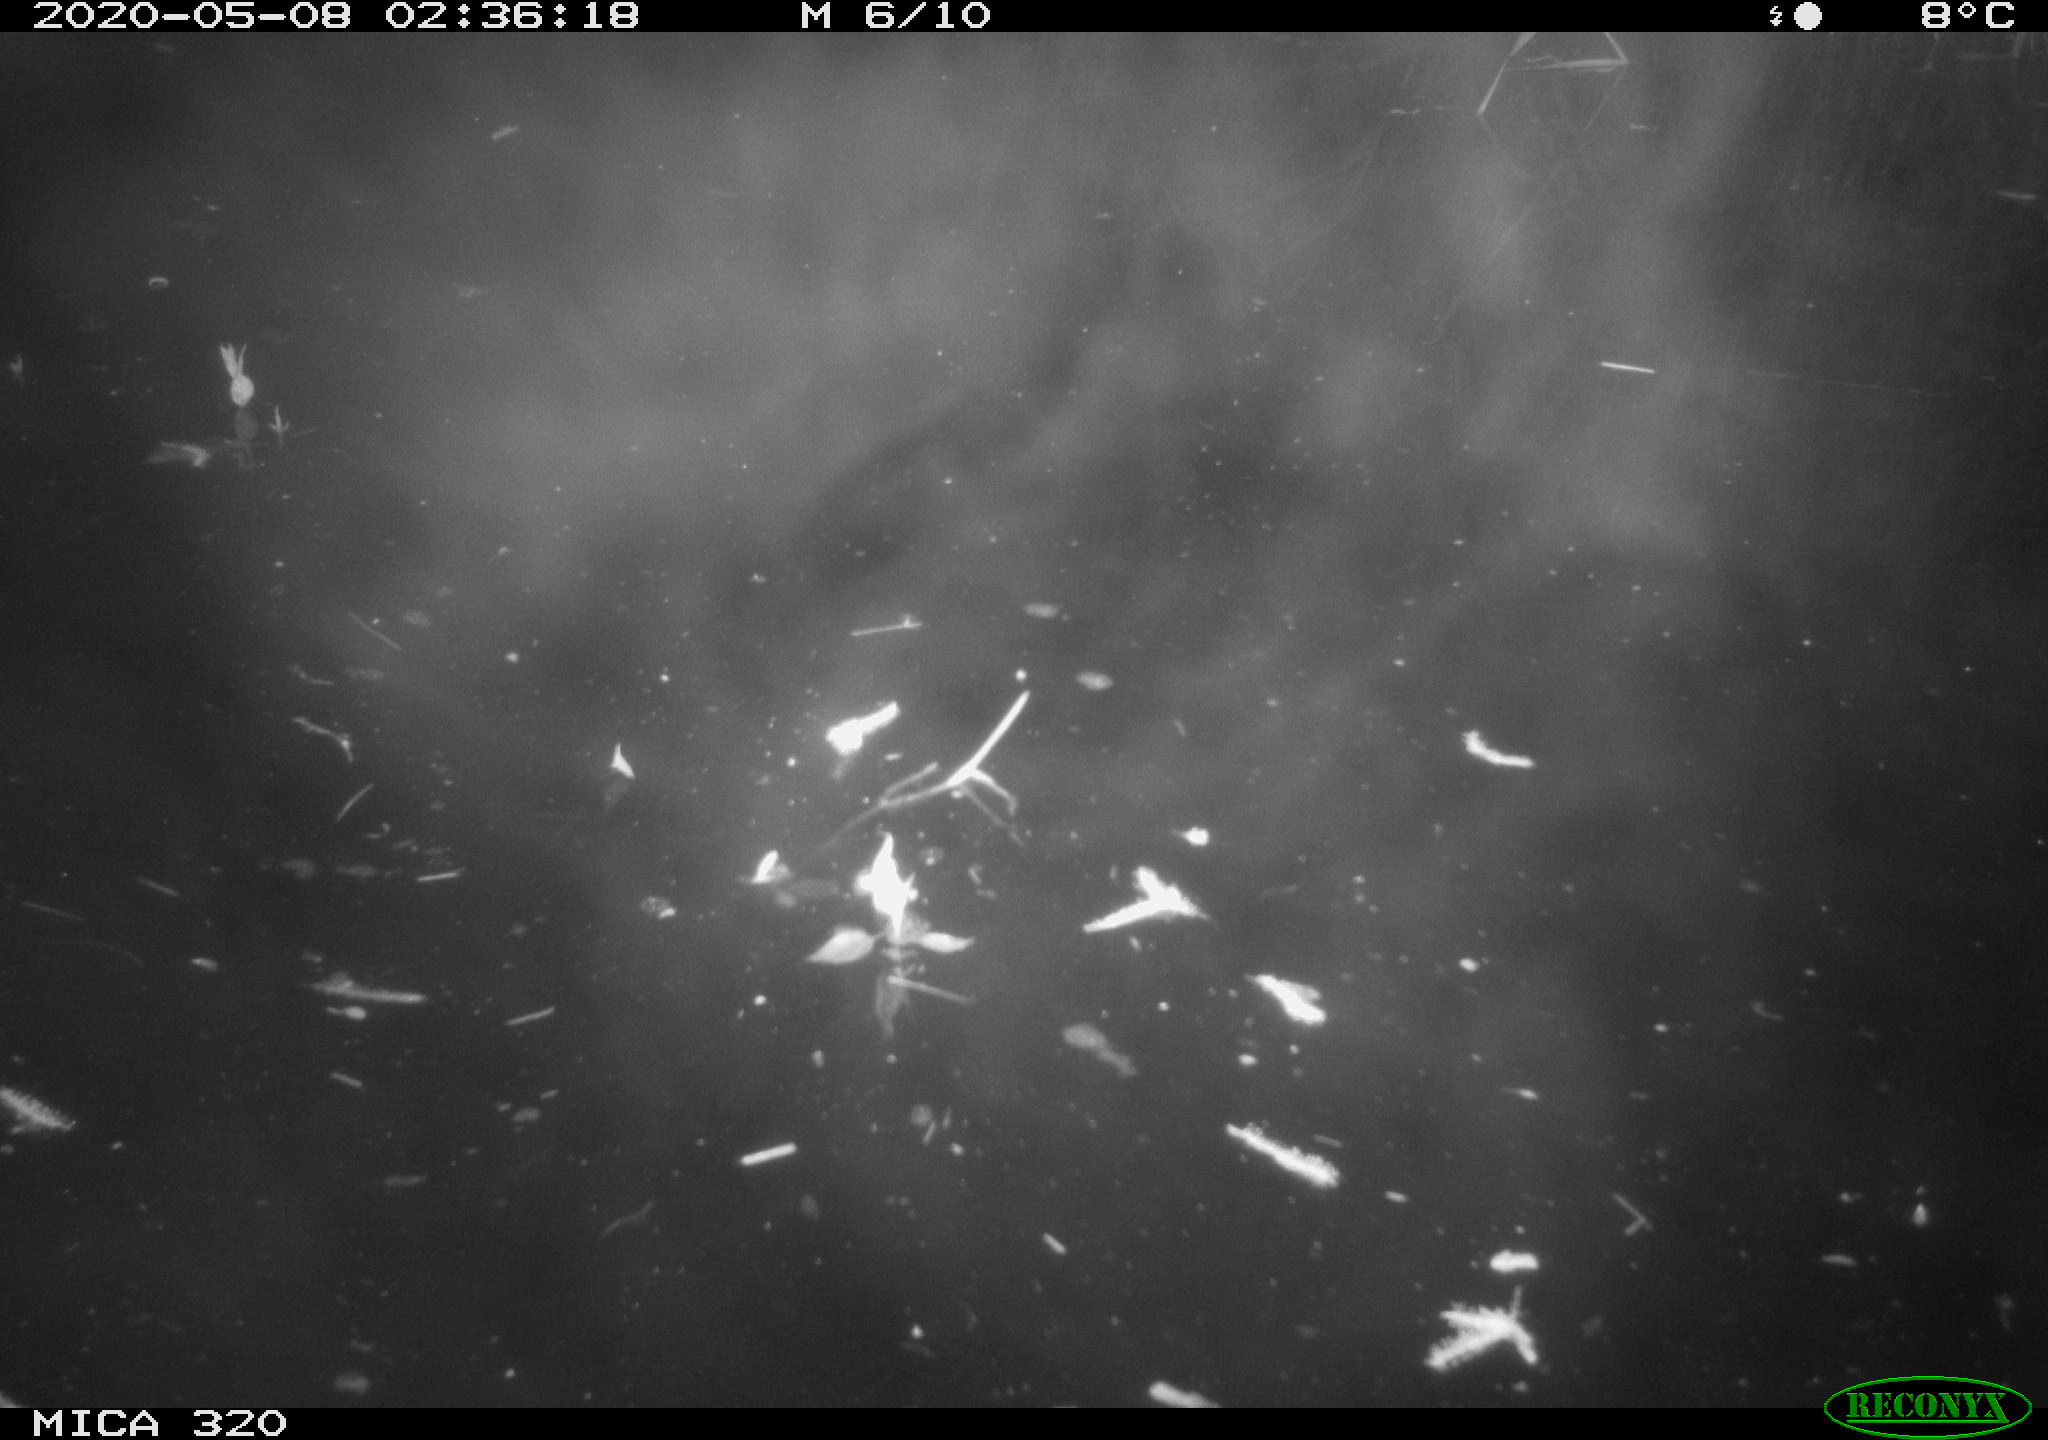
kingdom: Animalia
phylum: Chordata
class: Aves
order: Anseriformes
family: Anatidae
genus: Anas
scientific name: Anas platyrhynchos
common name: Mallard
